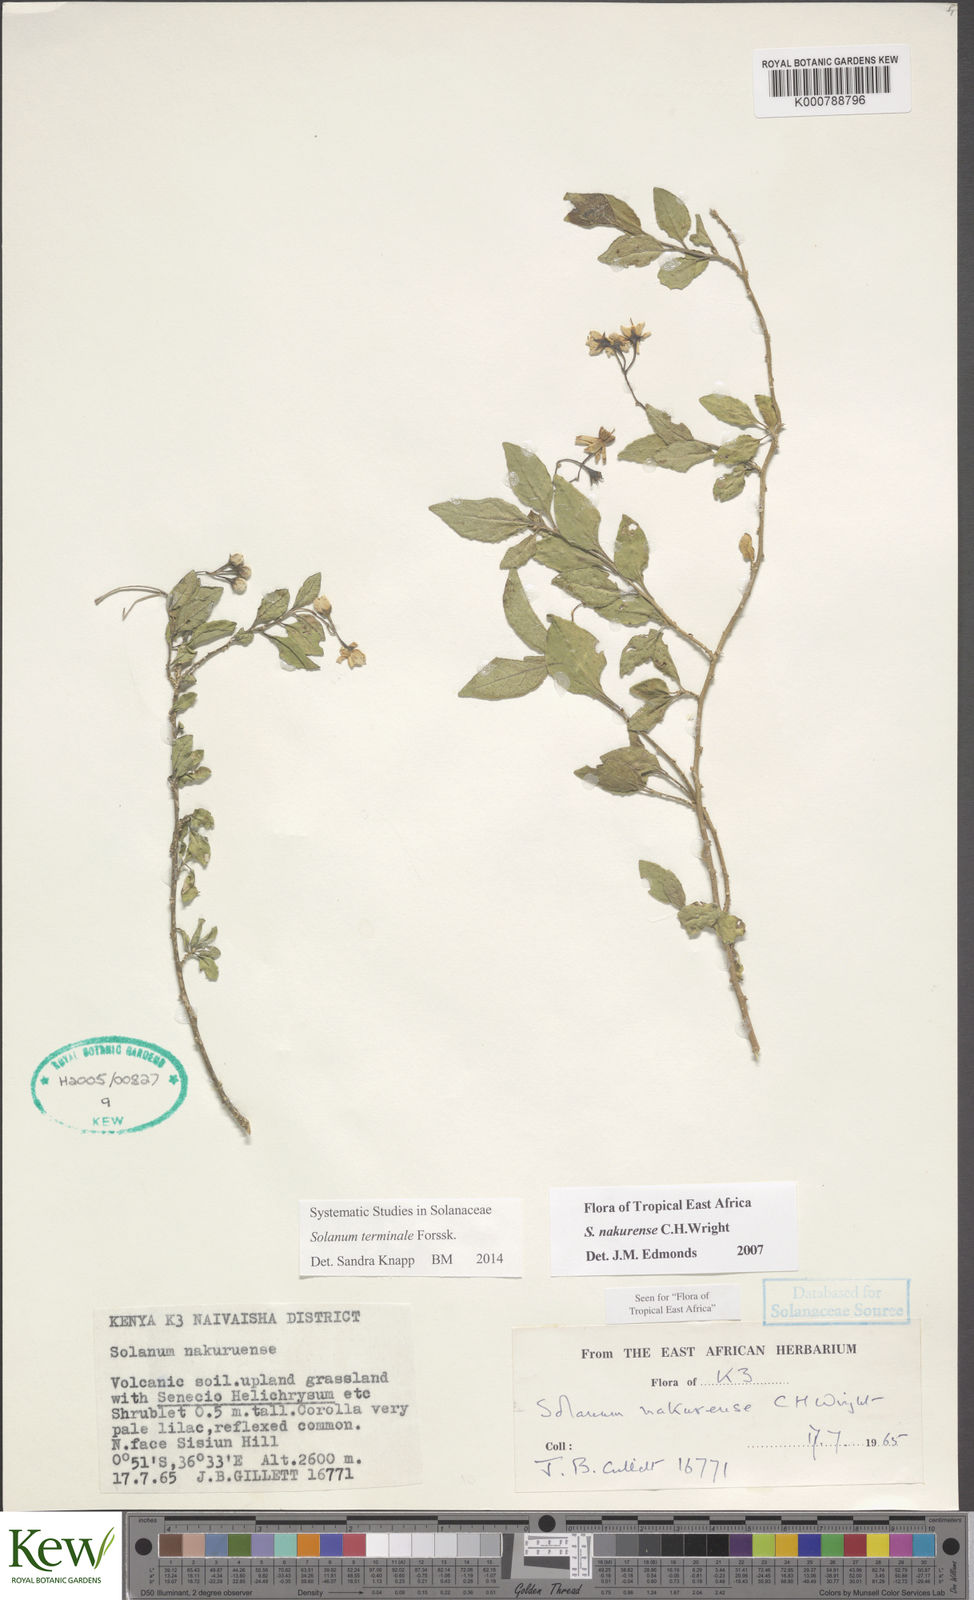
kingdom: Plantae
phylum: Tracheophyta
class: Magnoliopsida
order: Solanales
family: Solanaceae
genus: Solanum
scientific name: Solanum terminale
